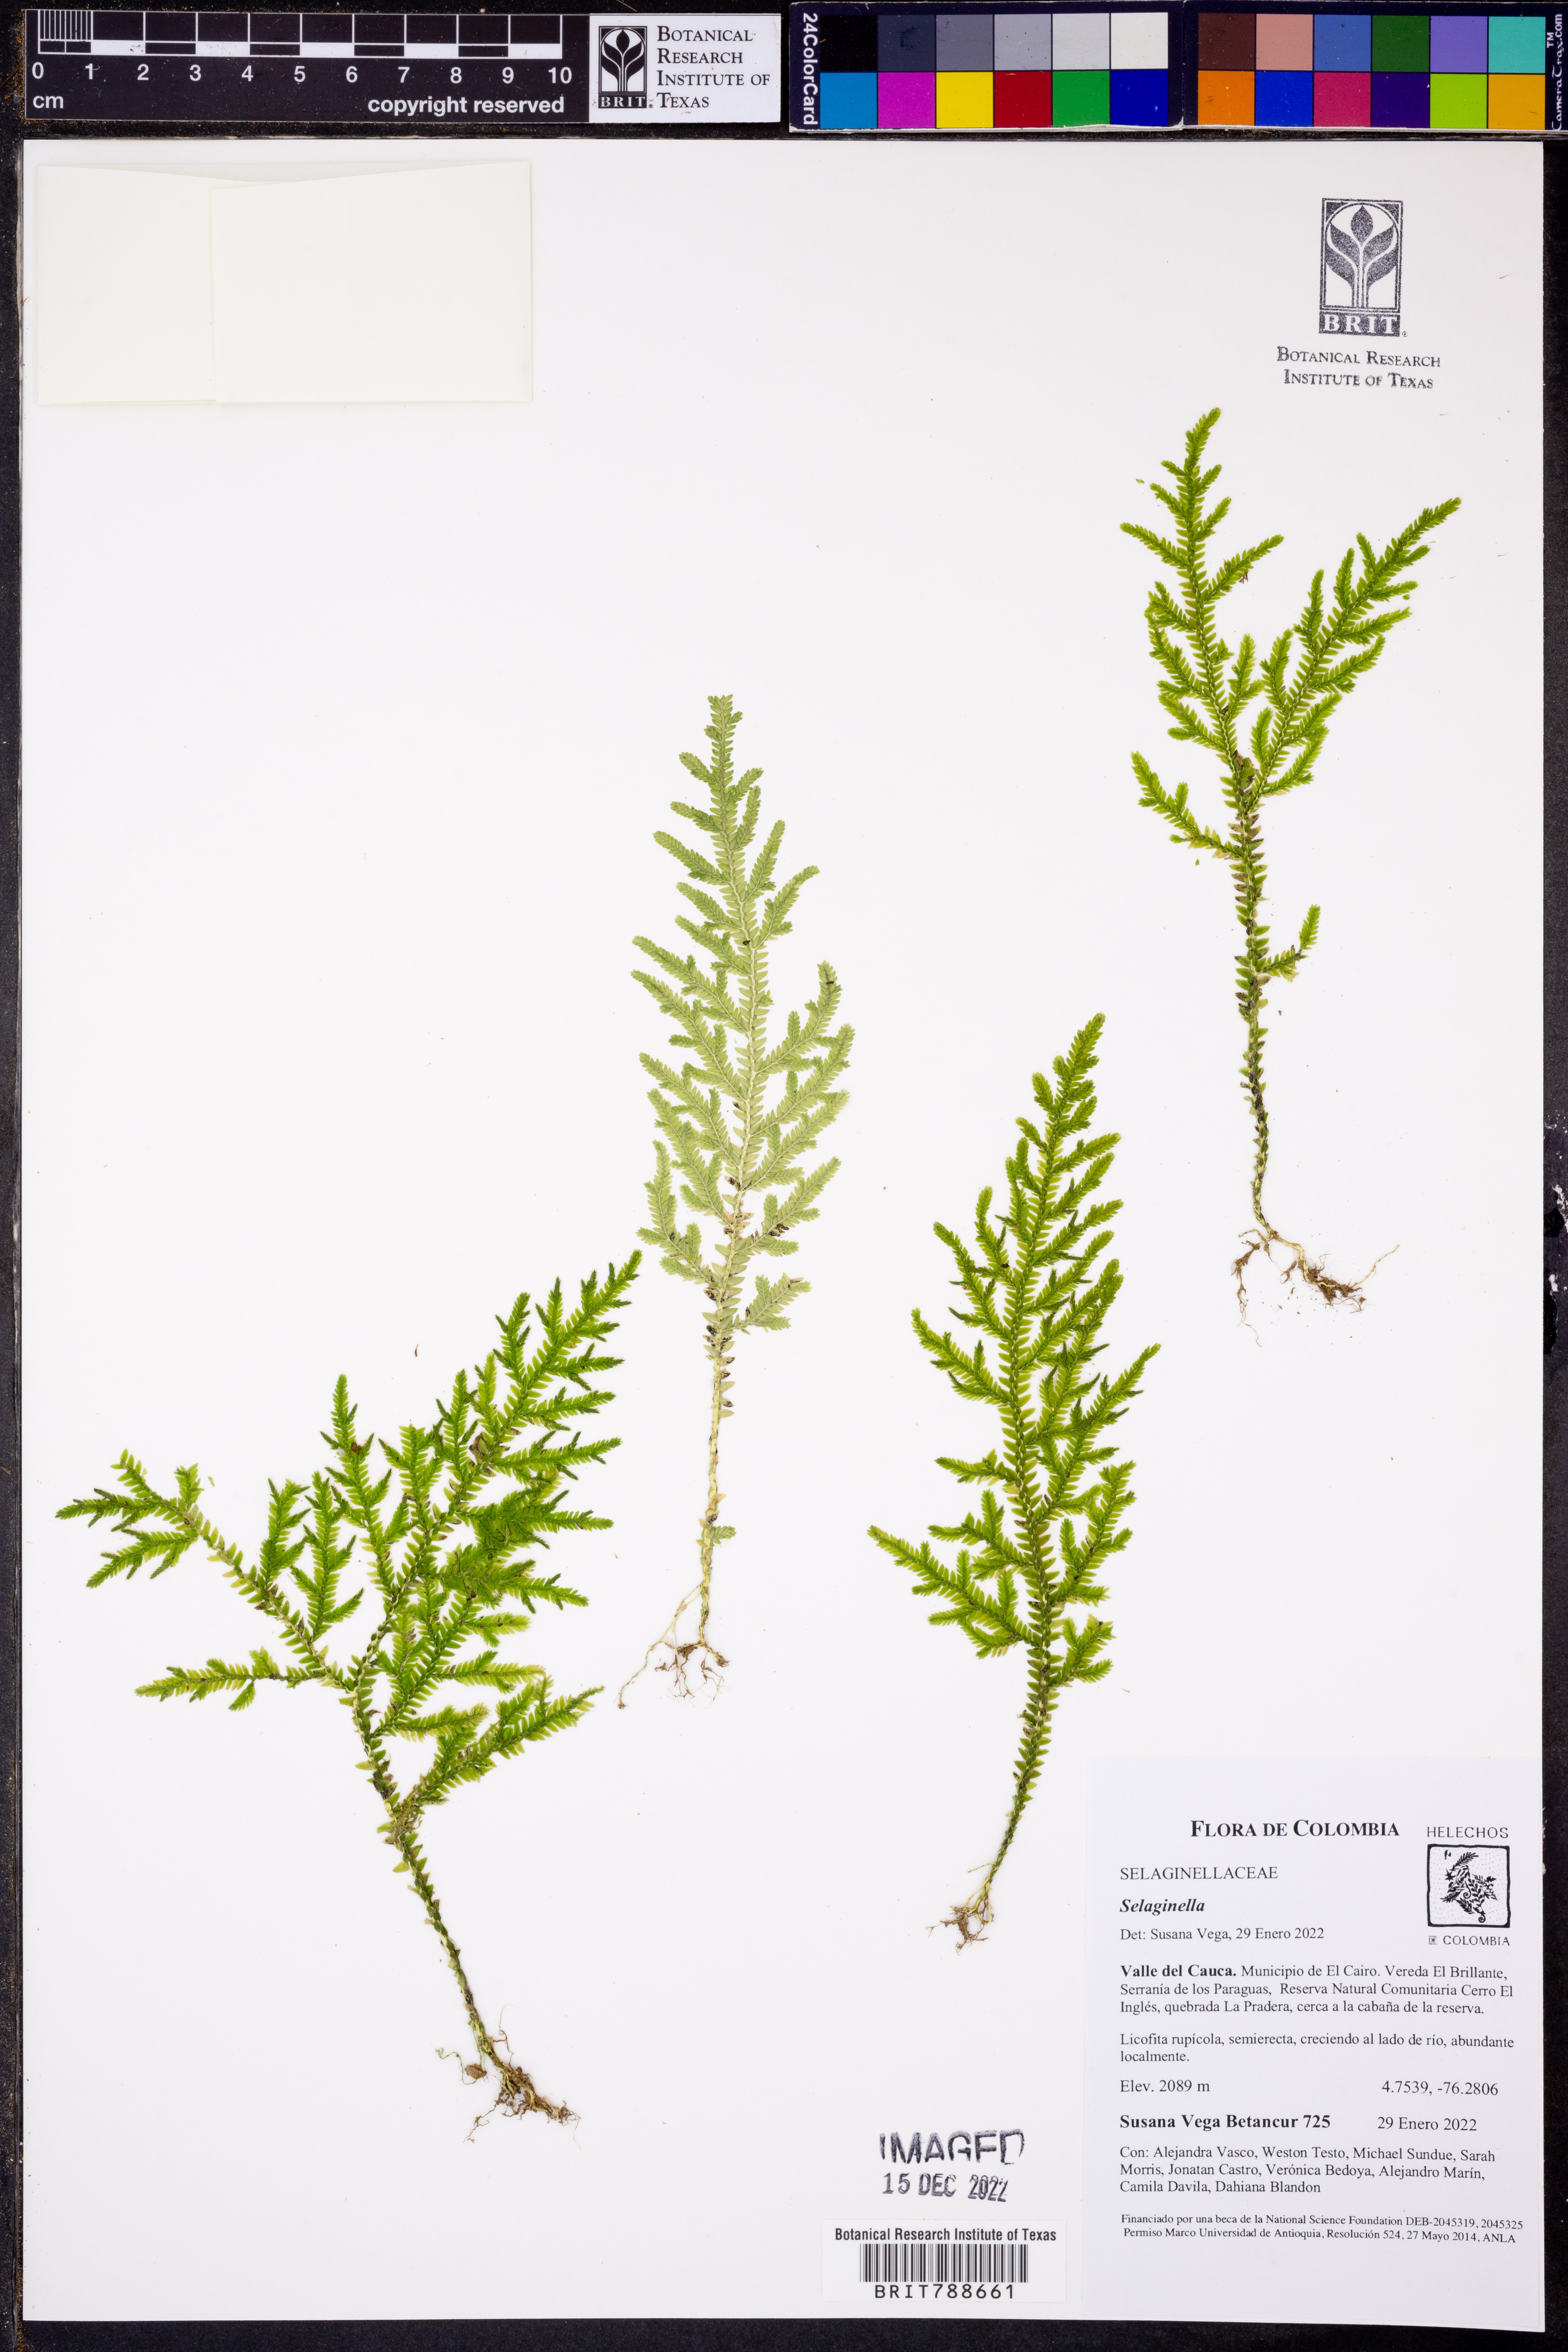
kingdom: Plantae
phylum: Tracheophyta
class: Lycopodiopsida
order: Selaginellales
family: Selaginellaceae
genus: Selaginella
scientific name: Selaginella
